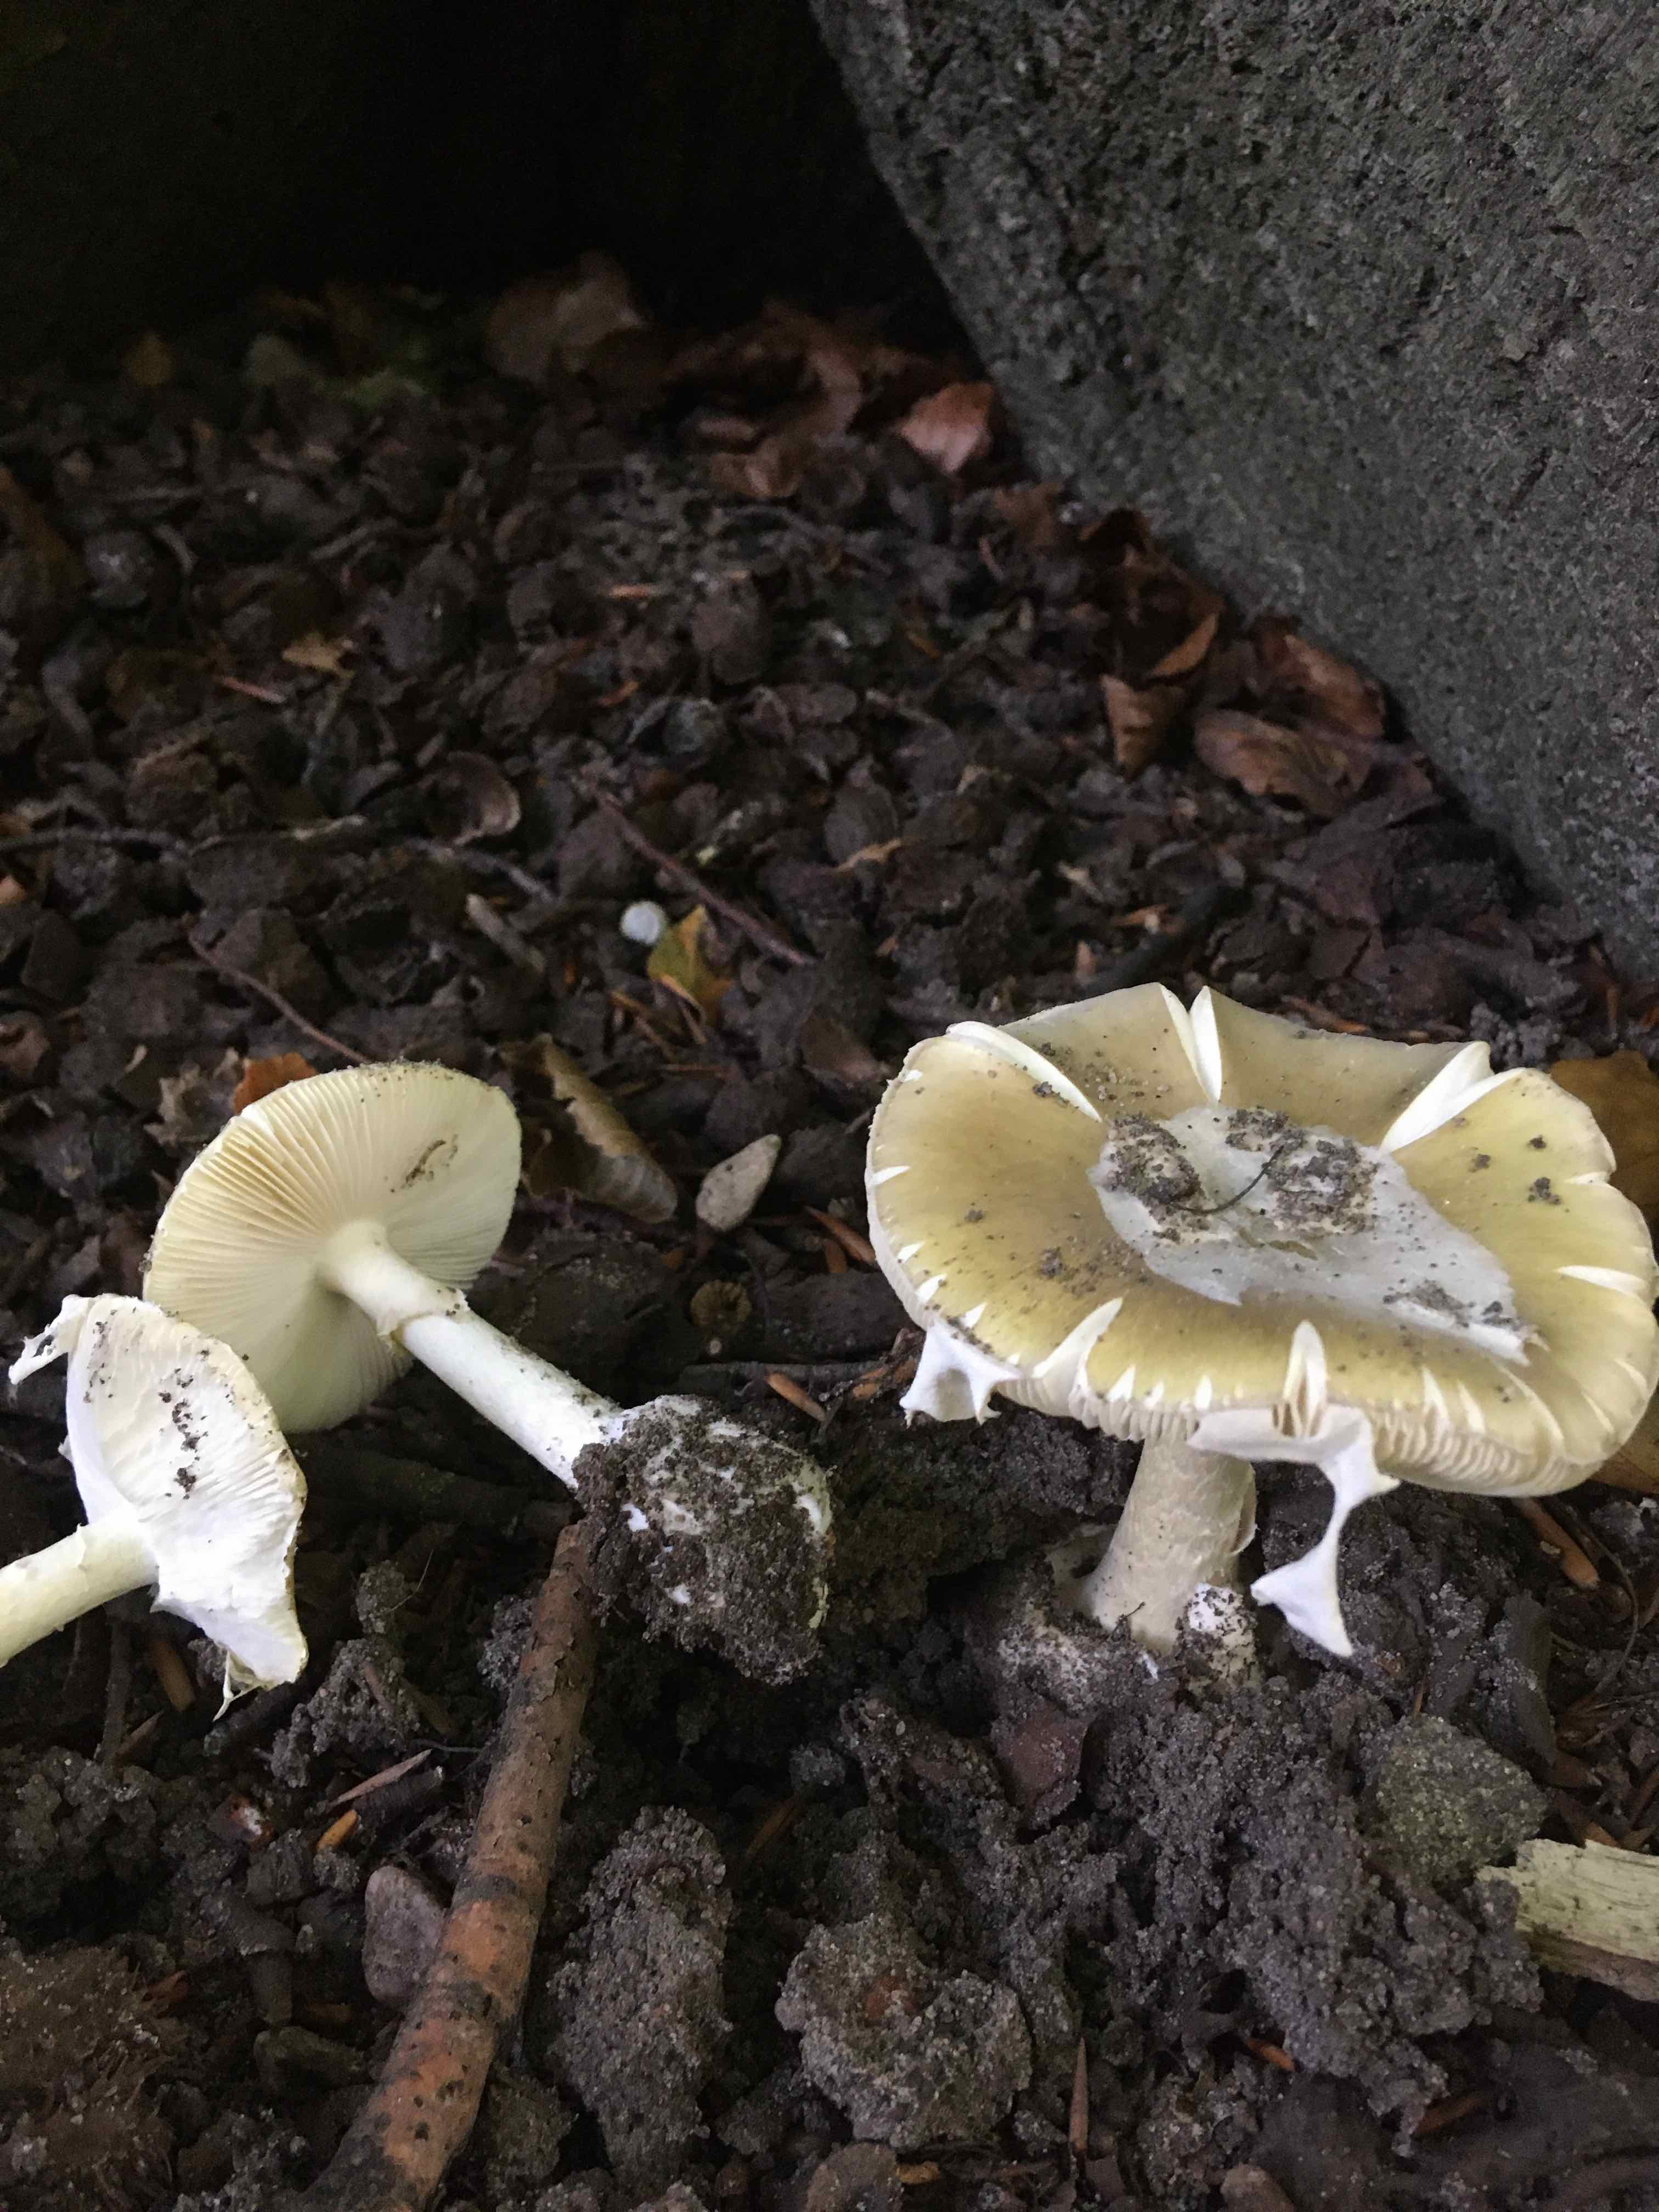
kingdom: Fungi
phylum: Basidiomycota
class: Agaricomycetes
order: Agaricales
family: Amanitaceae
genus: Amanita
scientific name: Amanita phalloides
